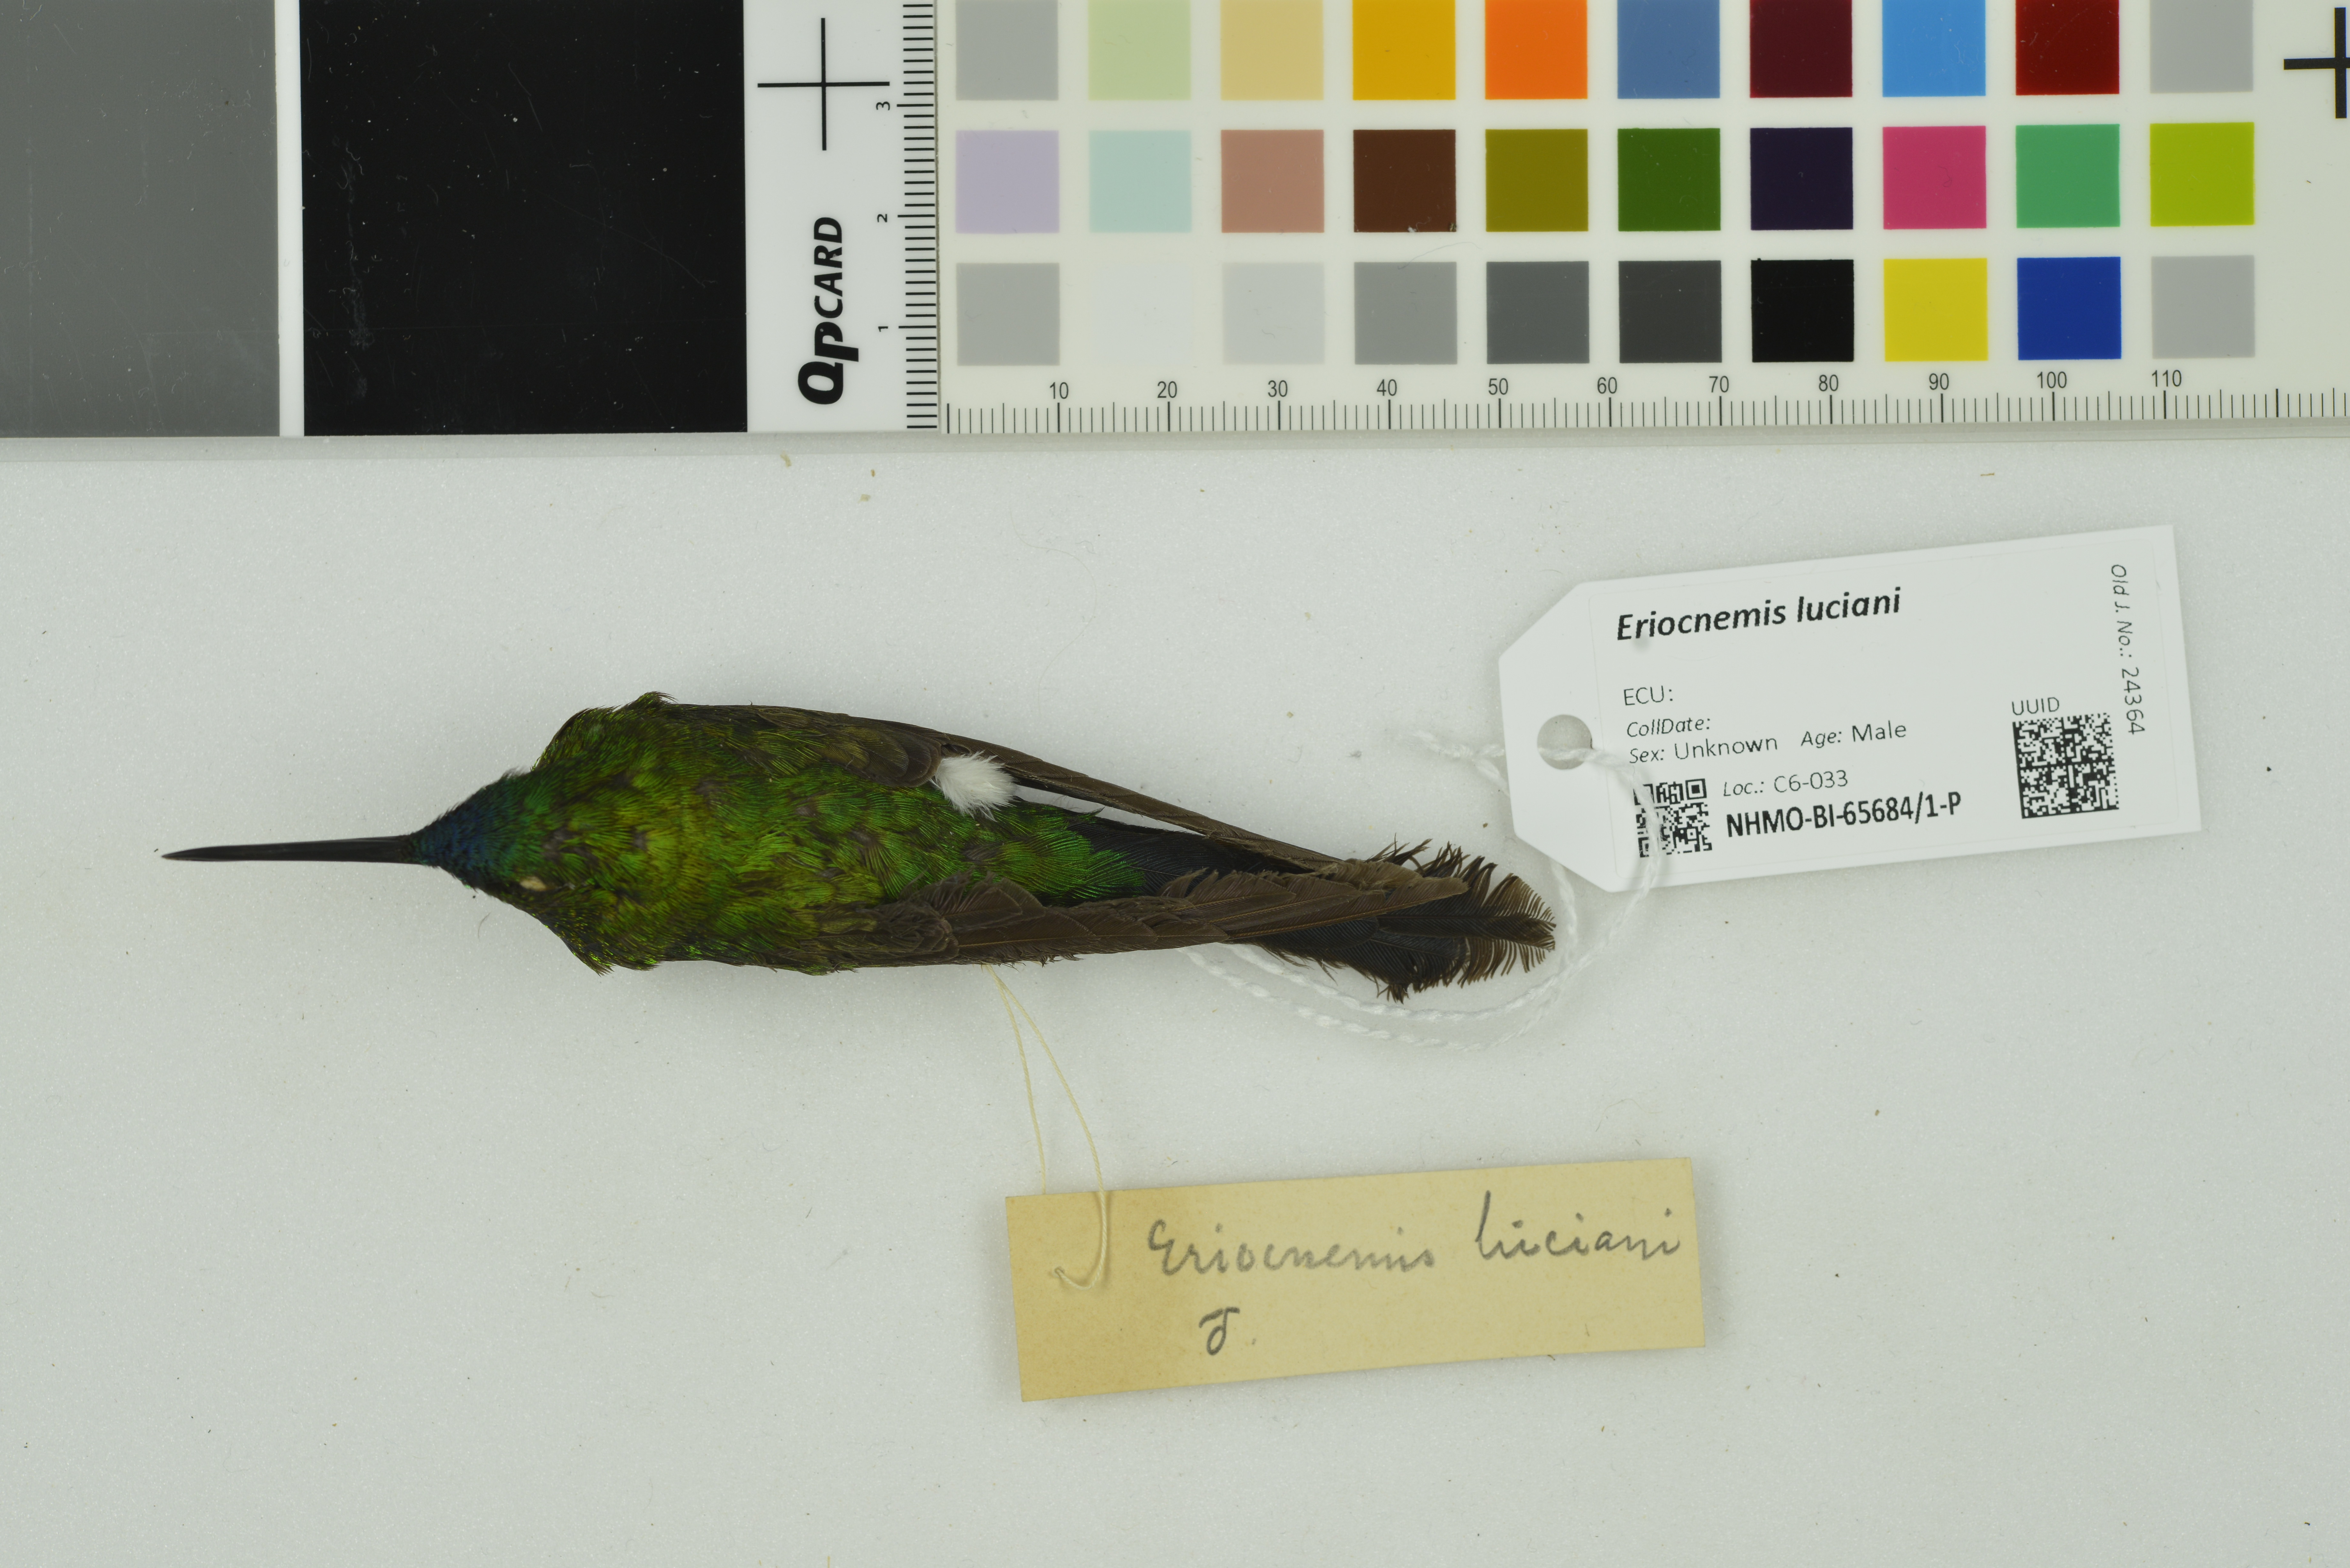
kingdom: Animalia
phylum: Chordata
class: Aves
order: Apodiformes
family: Trochilidae
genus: Eriocnemis
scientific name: Eriocnemis luciani
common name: Sapphire-vented puffleg
